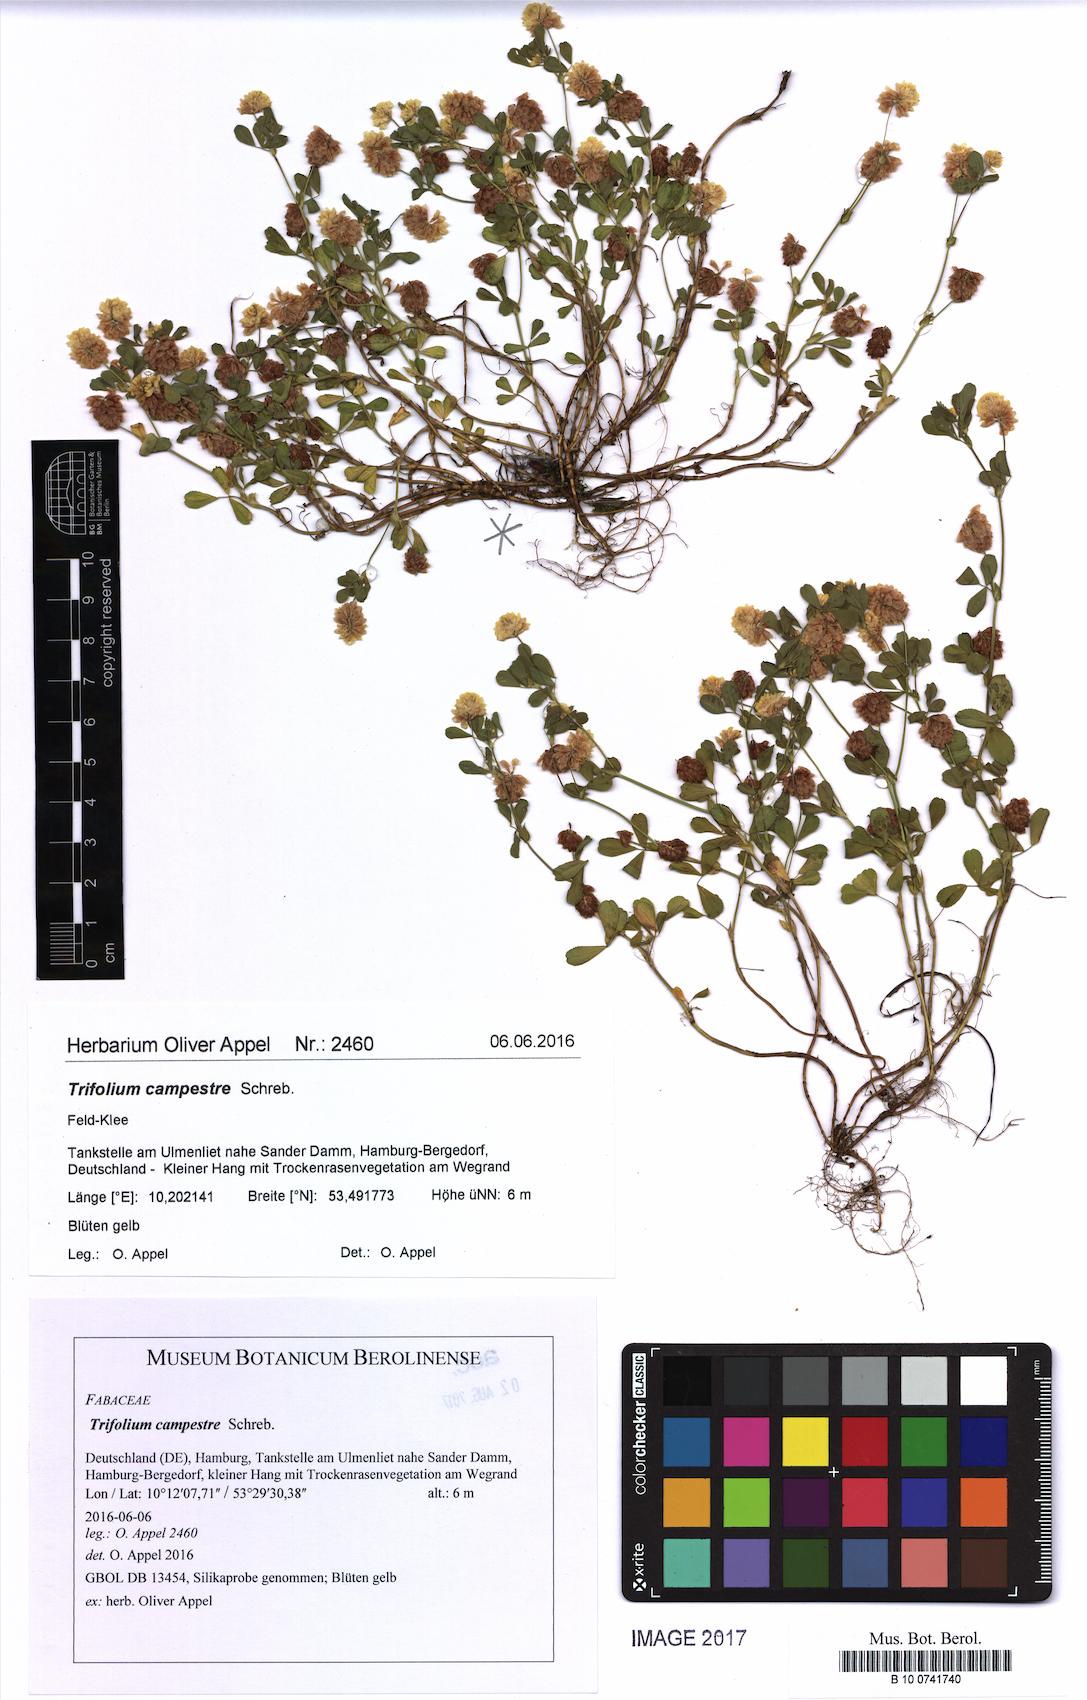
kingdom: Plantae
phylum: Tracheophyta
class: Magnoliopsida
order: Fabales
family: Fabaceae
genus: Trifolium
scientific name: Trifolium campestre
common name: Field clover
